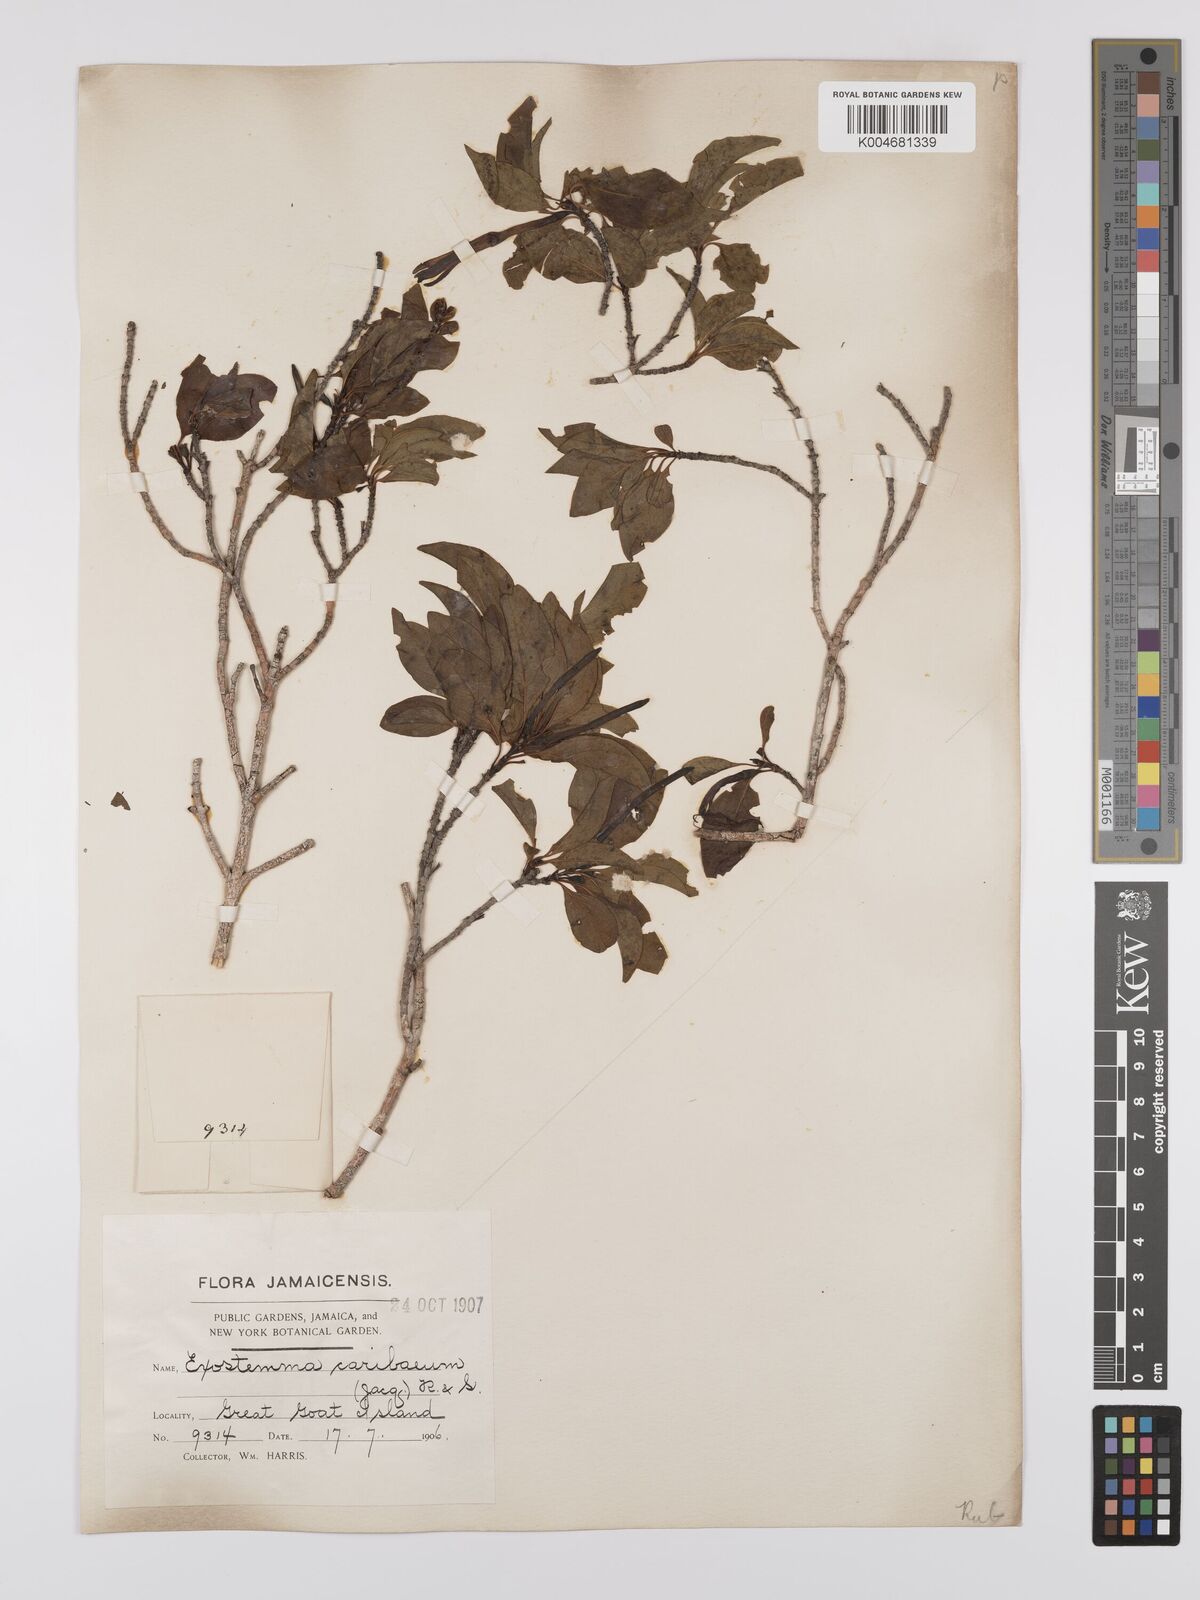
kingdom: Plantae
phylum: Tracheophyta
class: Magnoliopsida
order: Gentianales
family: Rubiaceae
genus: Exostema
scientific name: Exostema caribaeum
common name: Princewood
